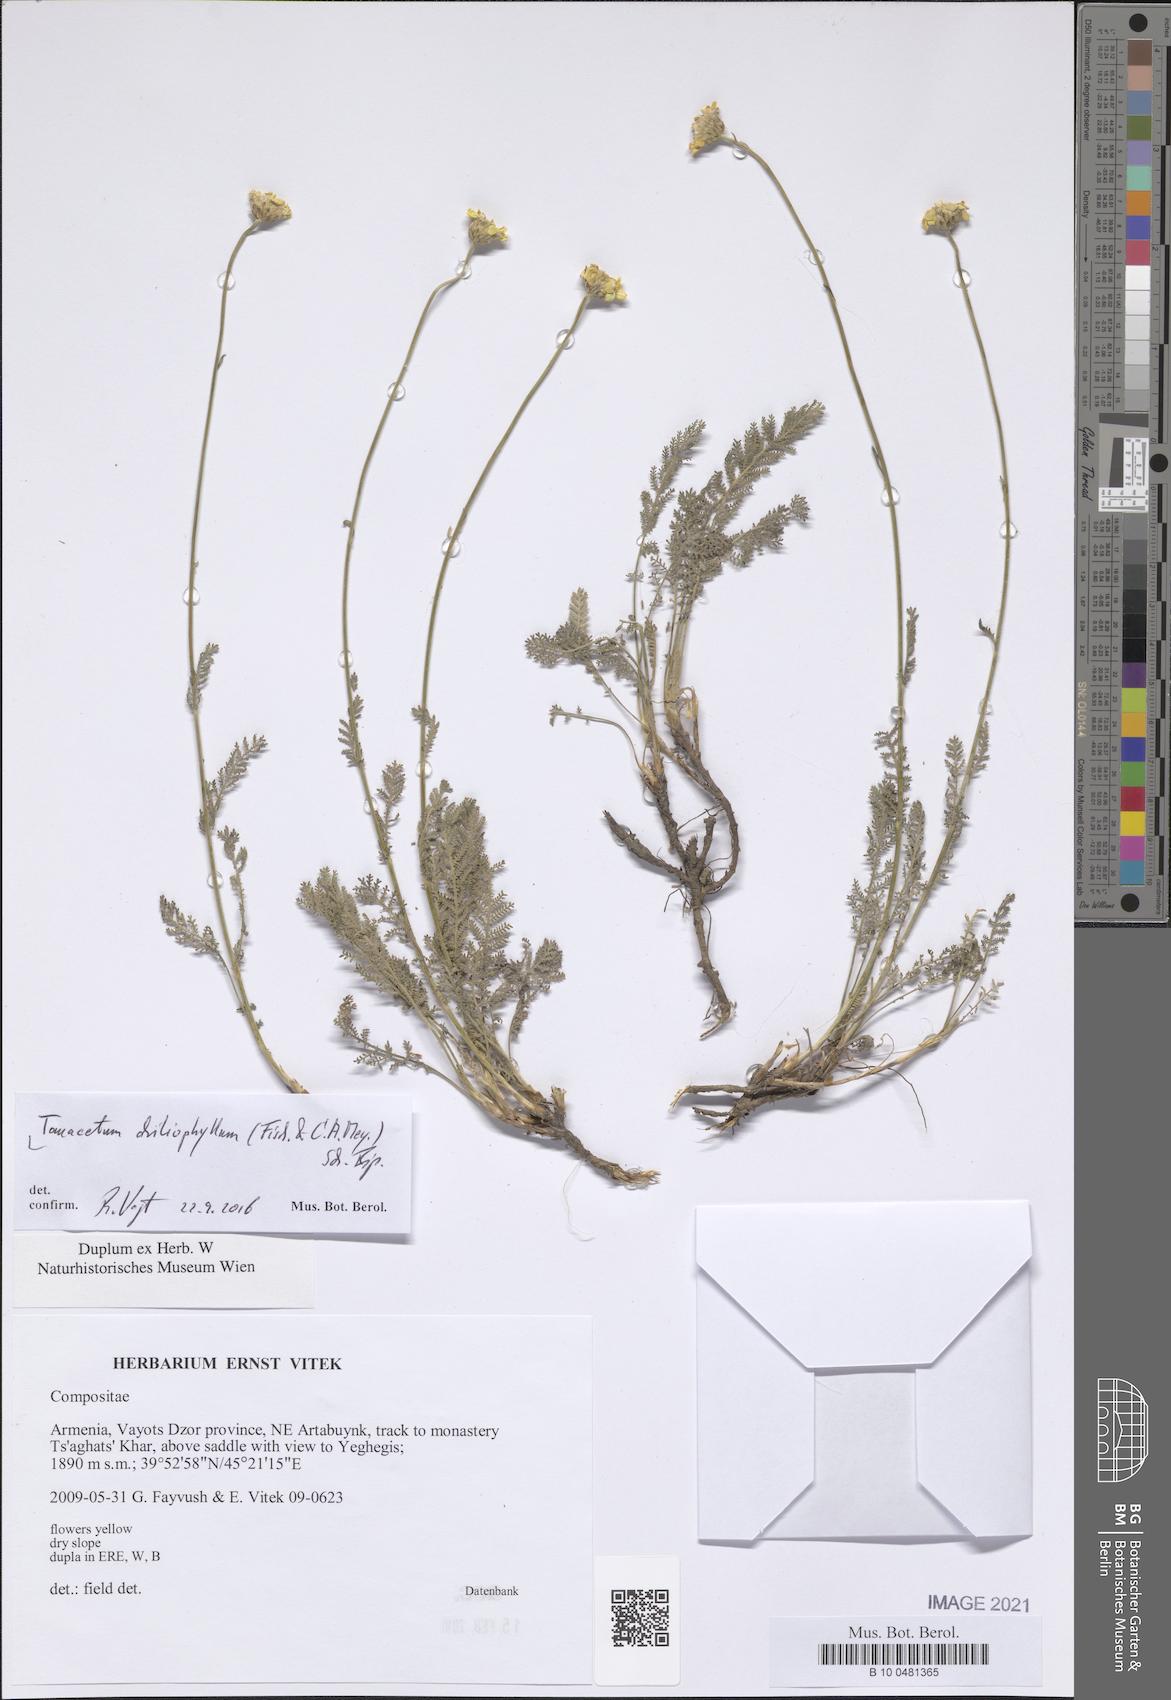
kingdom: Plantae
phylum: Tracheophyta
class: Magnoliopsida
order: Asterales
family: Asteraceae
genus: Tanacetum
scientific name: Tanacetum aureum
